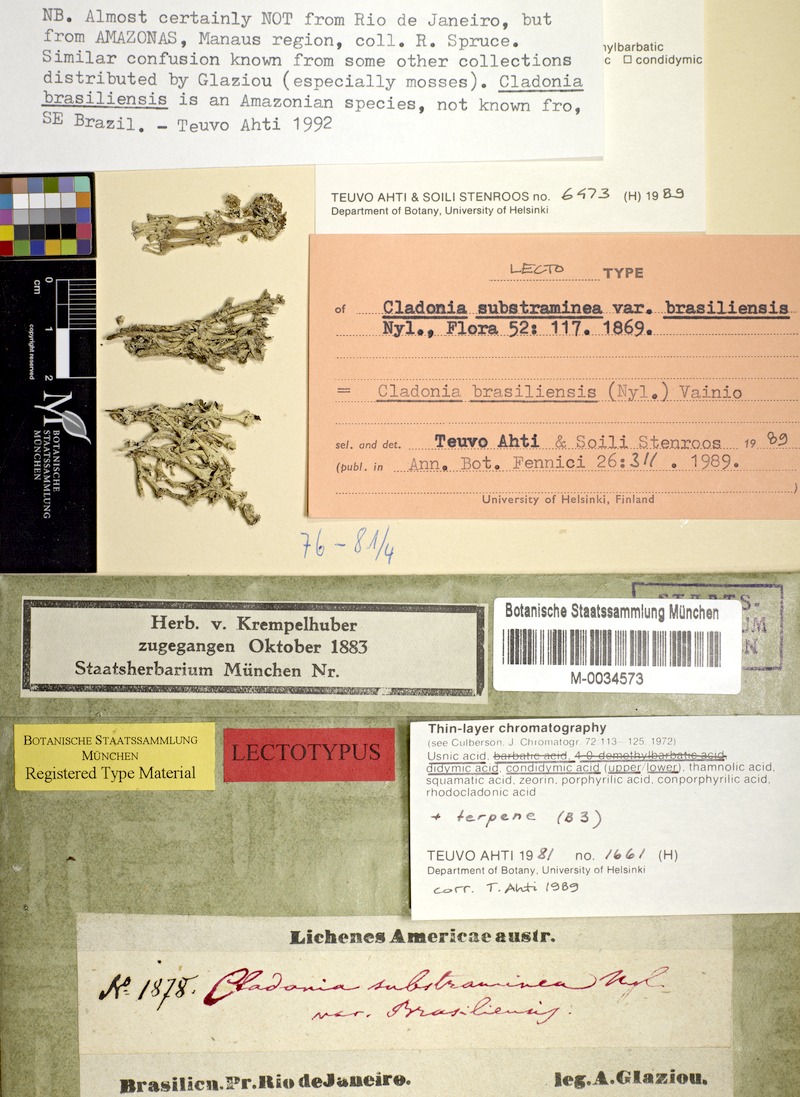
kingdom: Fungi
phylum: Ascomycota
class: Lecanoromycetes
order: Lecanorales
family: Cladoniaceae
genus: Cladonia
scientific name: Cladonia brasiliensis
